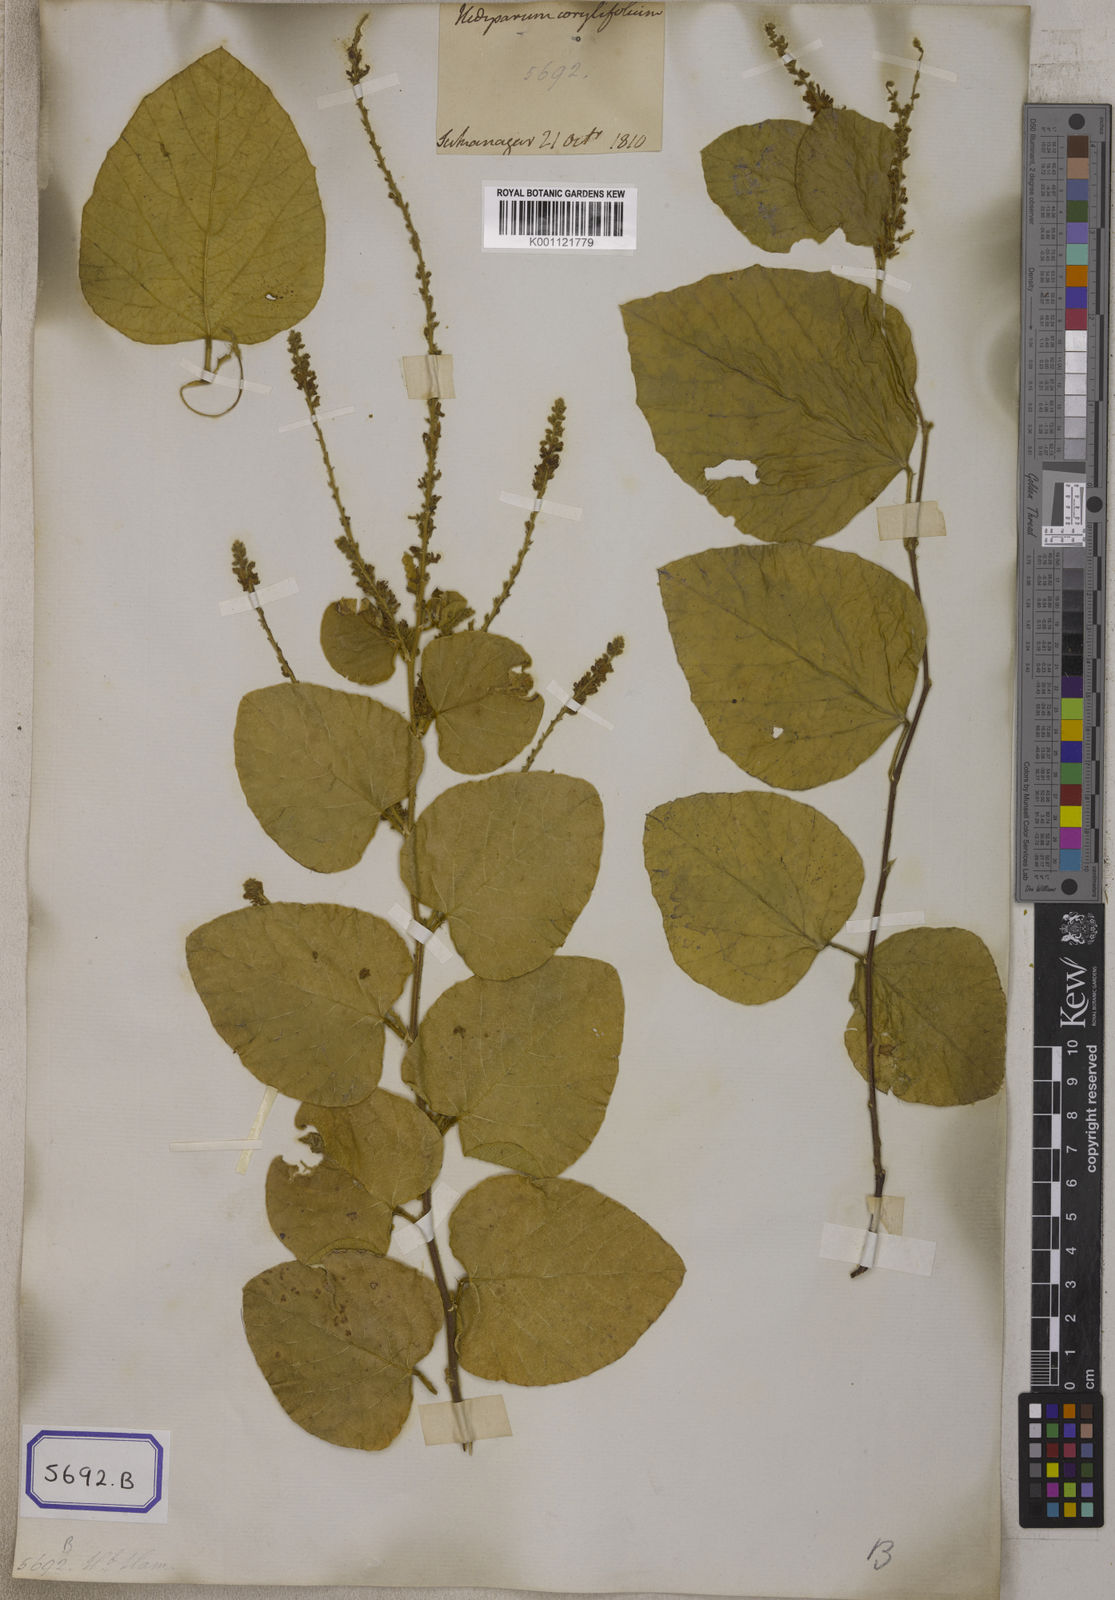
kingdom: Plantae
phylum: Tracheophyta
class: Magnoliopsida
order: Fabales
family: Fabaceae
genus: Polhillides
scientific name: Polhillides velutina
